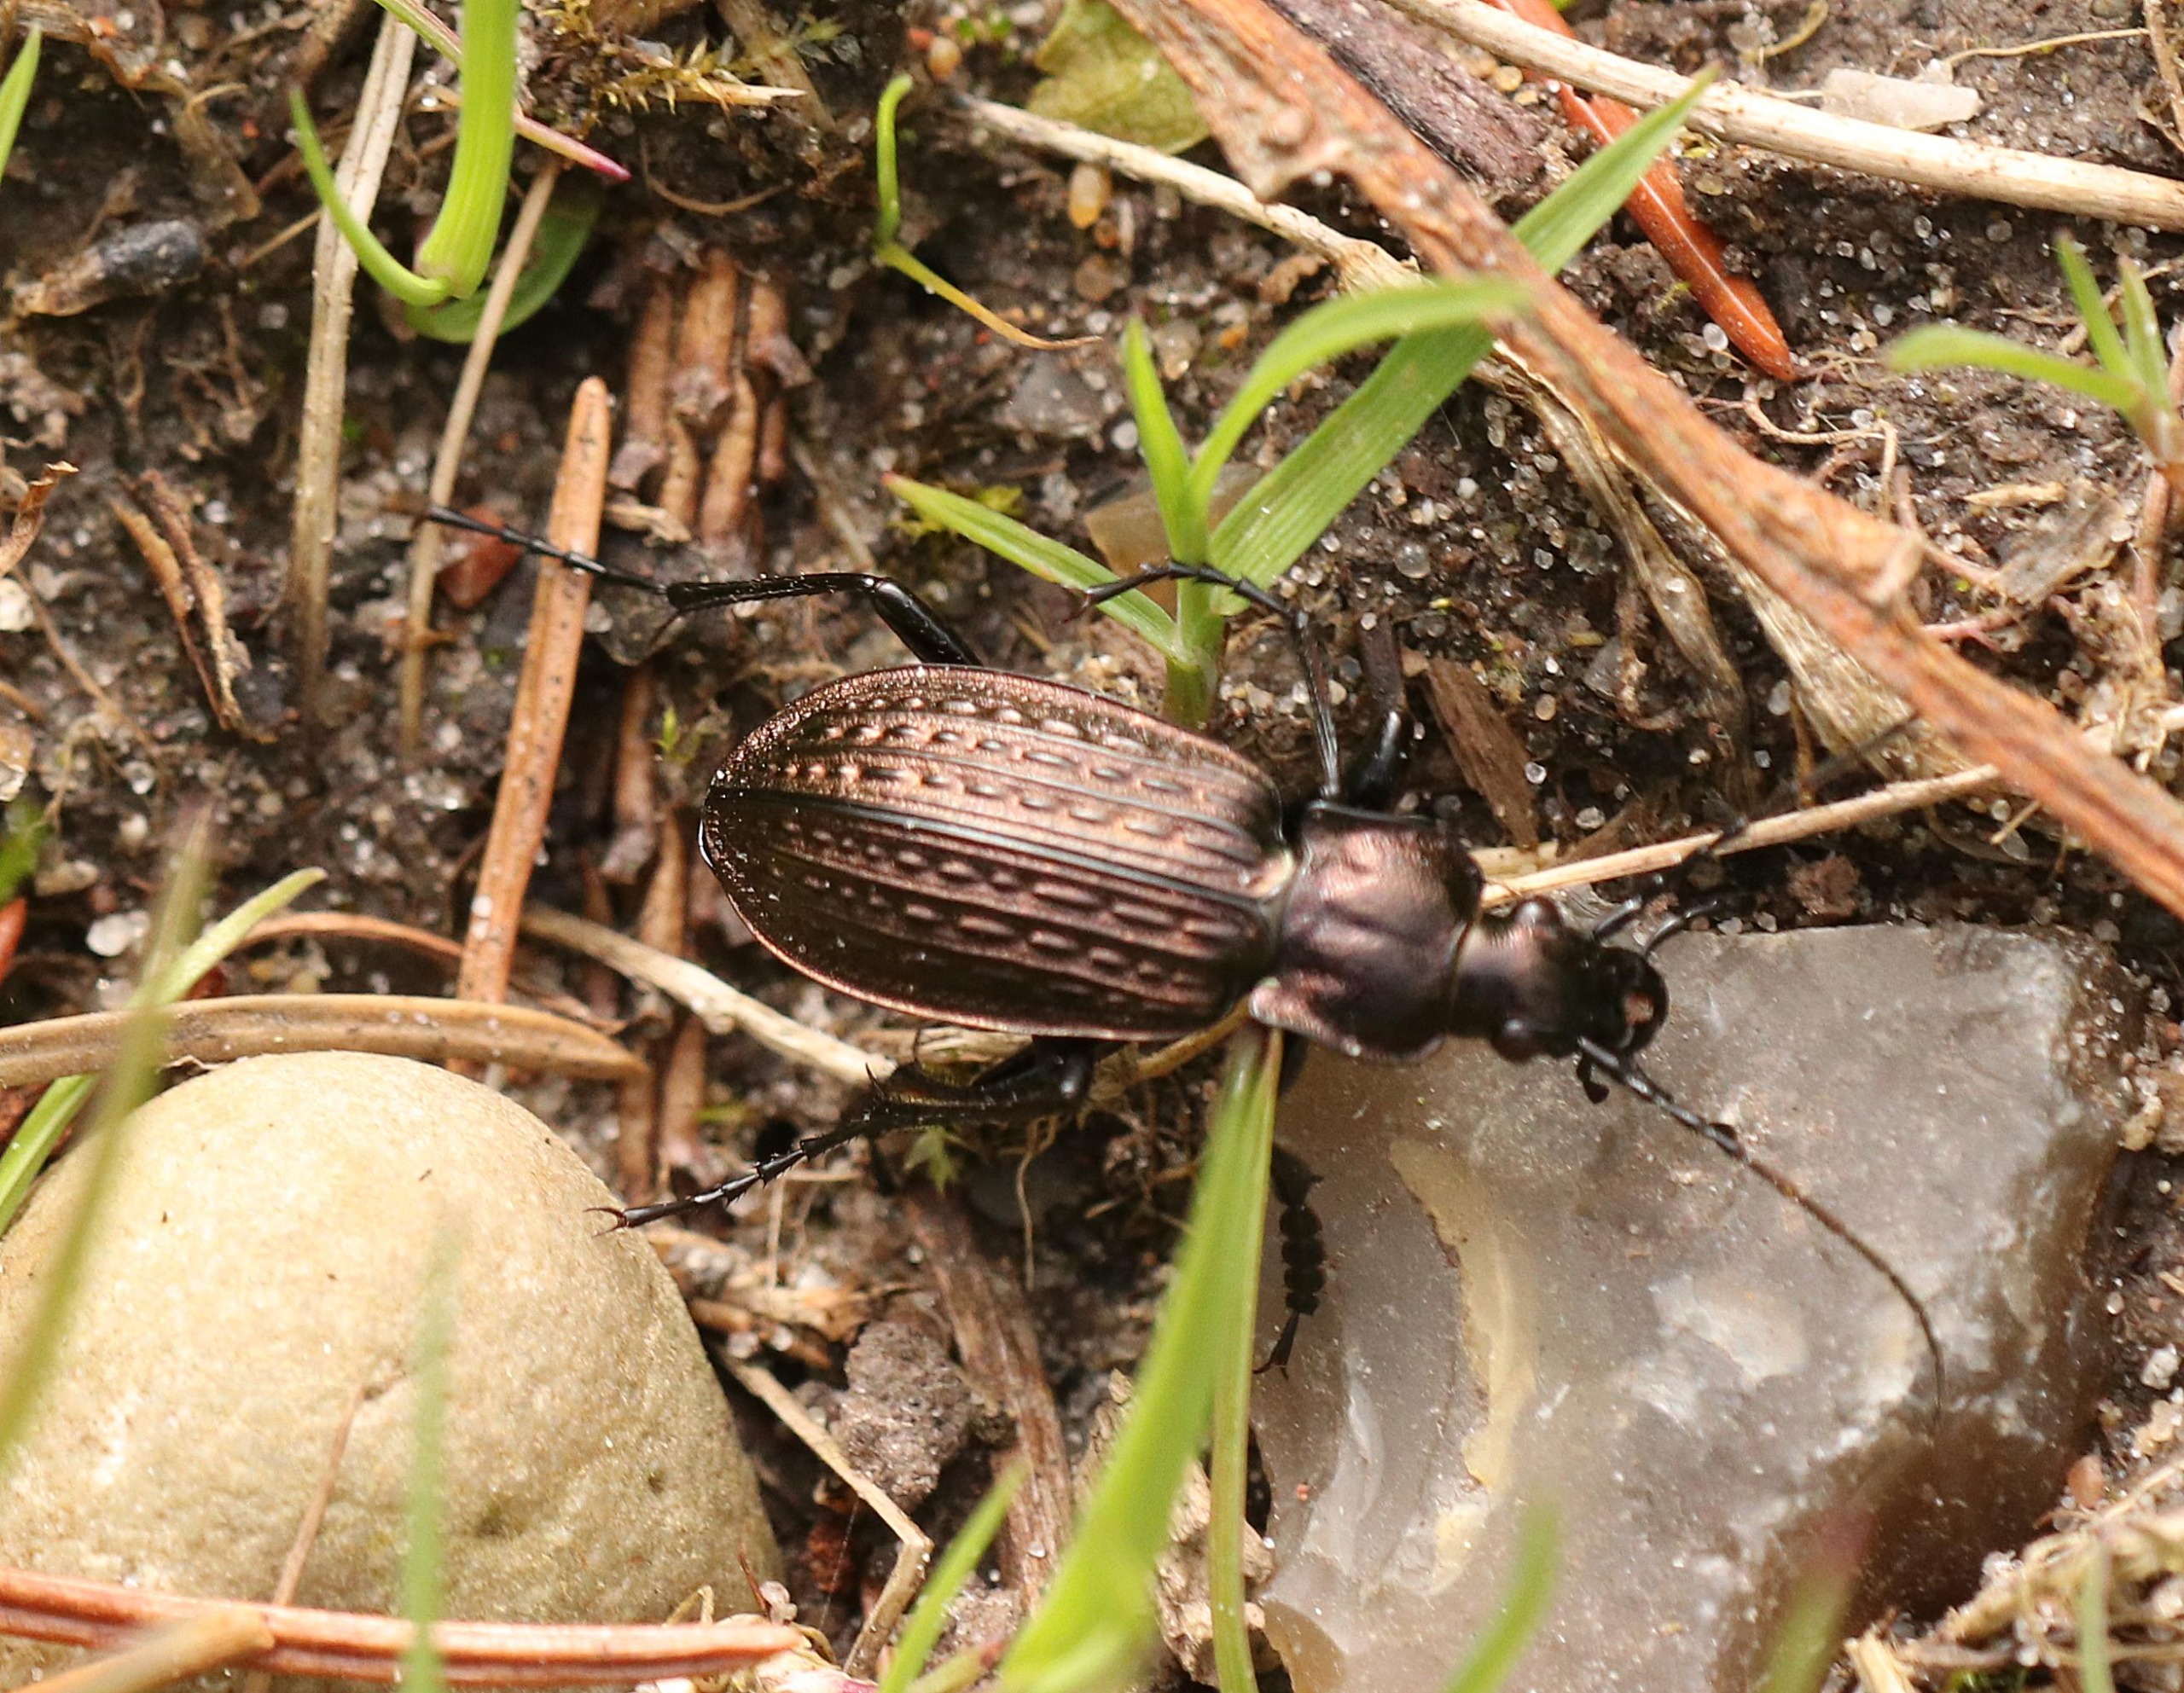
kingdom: Animalia
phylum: Arthropoda
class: Insecta
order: Coleoptera
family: Carabidae
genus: Carabus
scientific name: Carabus granulatus
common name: Kornet løber
